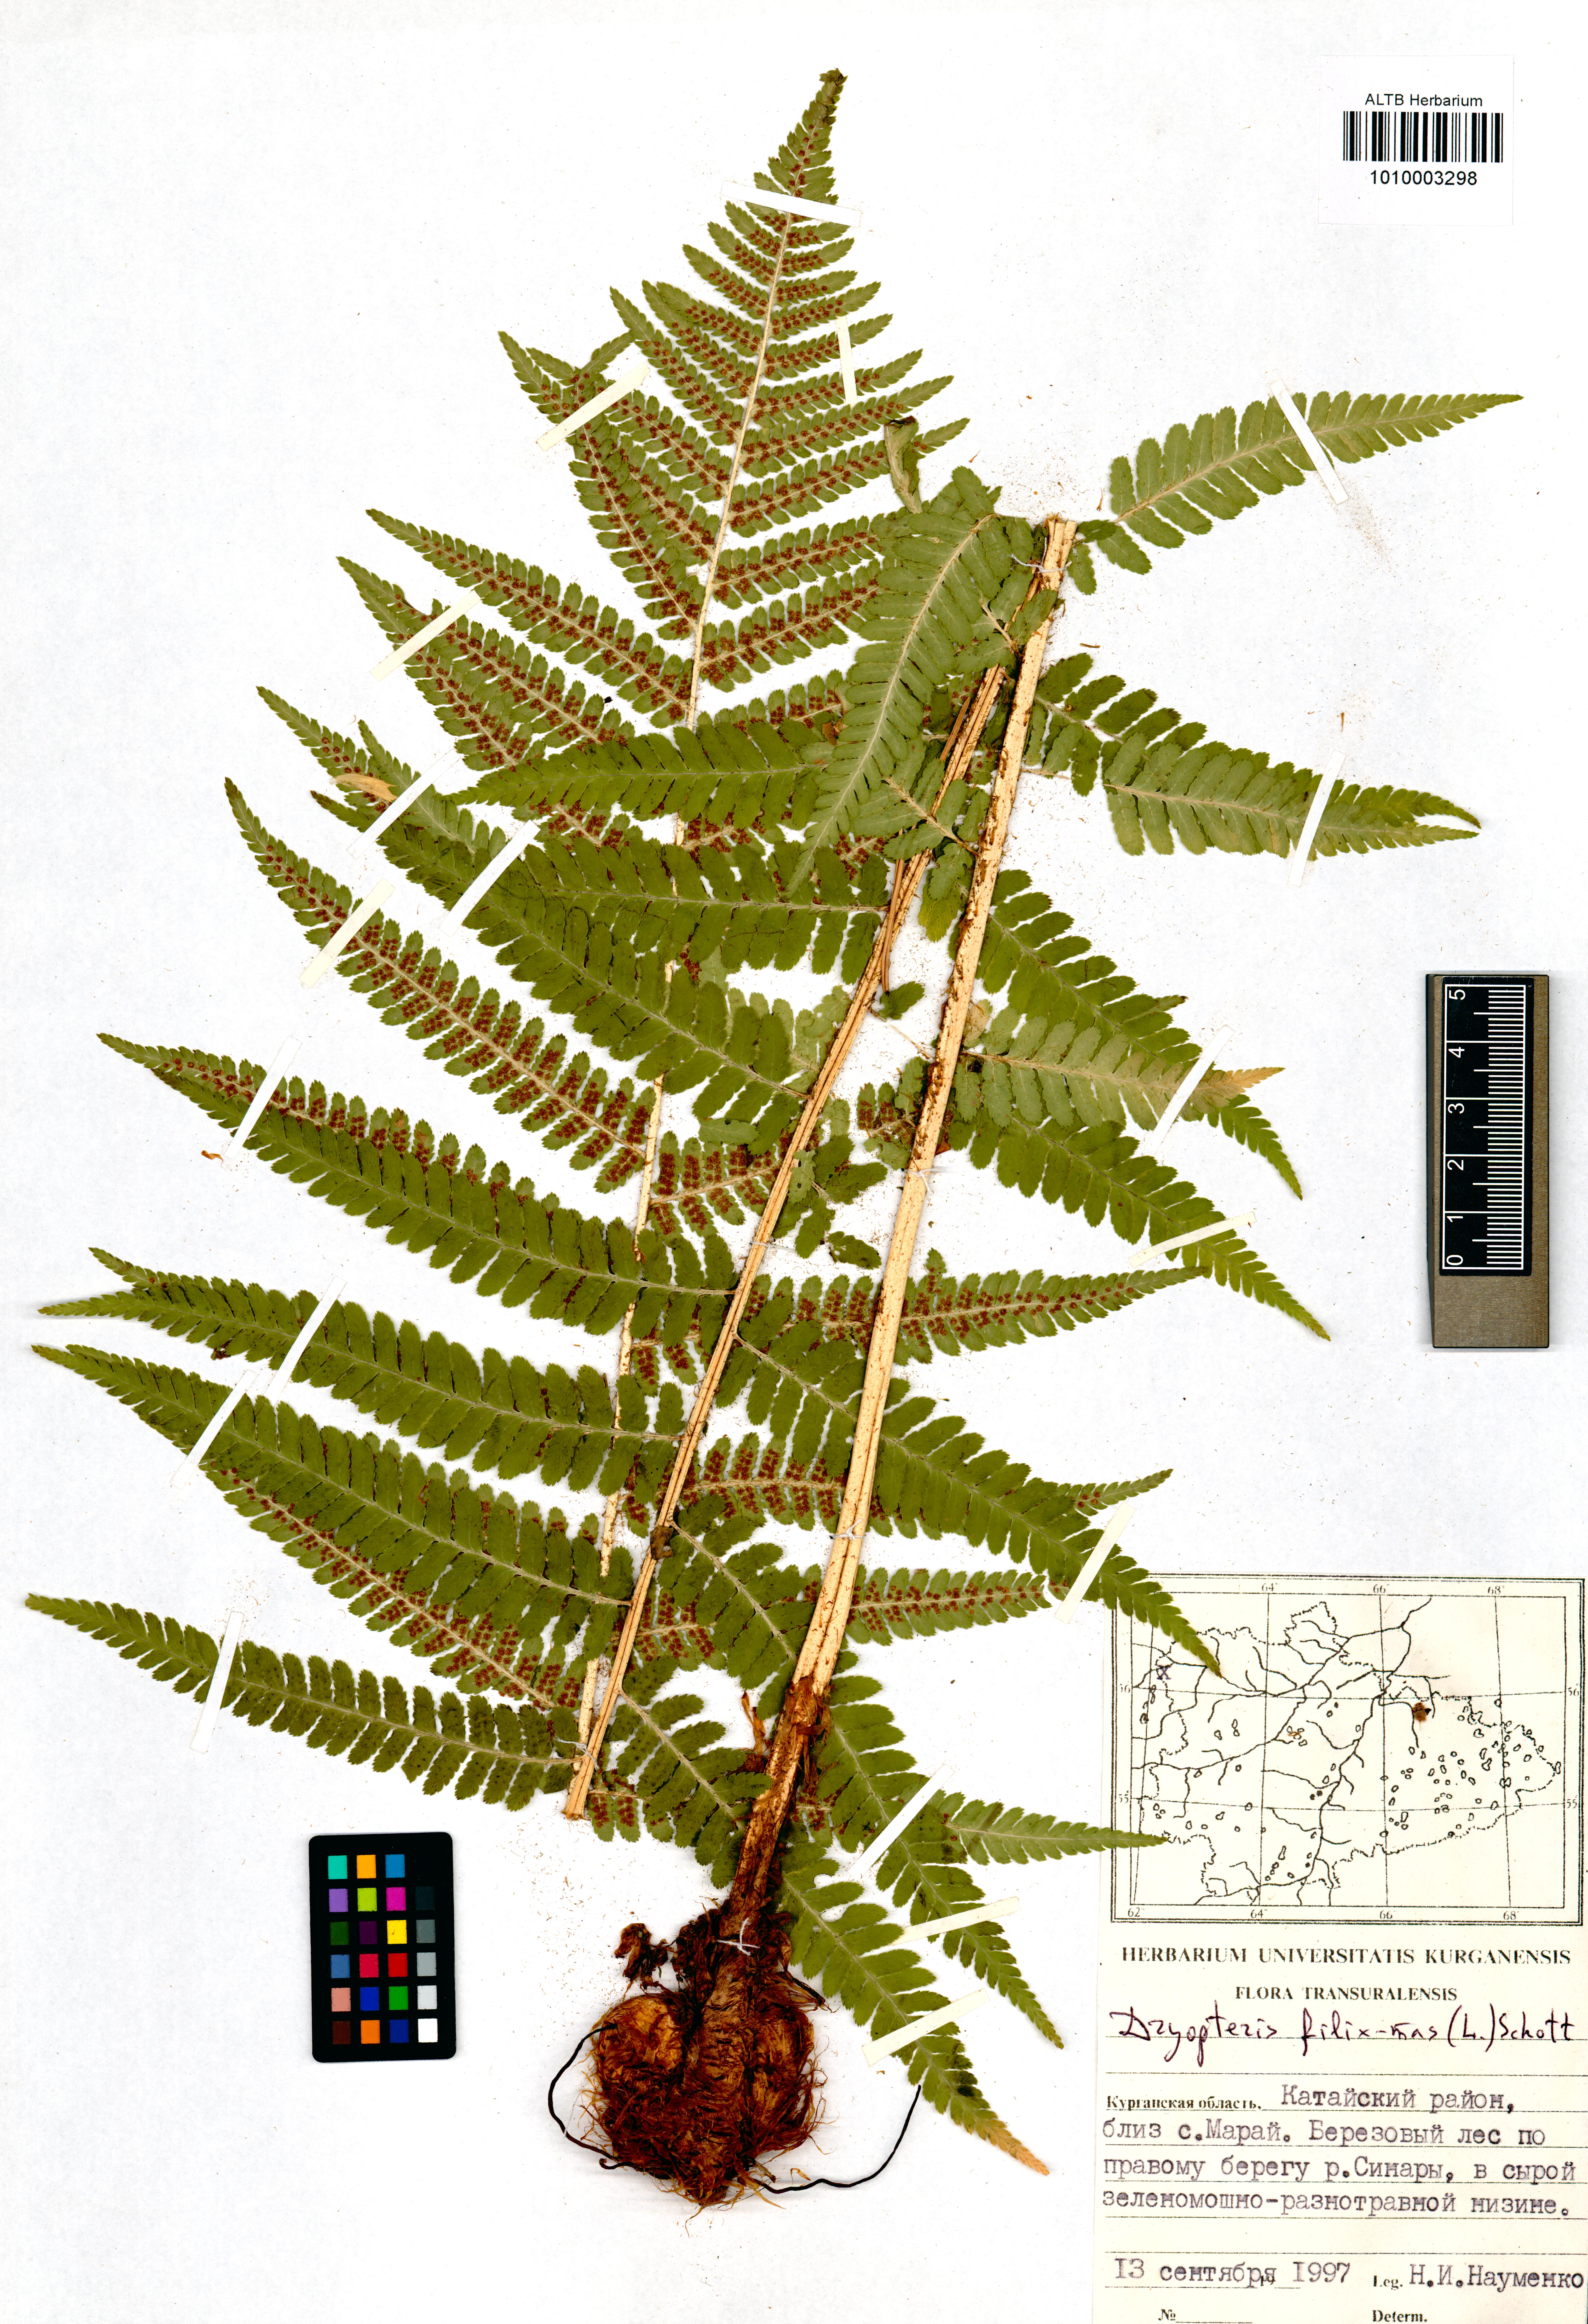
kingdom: Plantae
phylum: Tracheophyta
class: Polypodiopsida
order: Polypodiales
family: Dryopteridaceae
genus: Dryopteris
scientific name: Dryopteris filix-mas
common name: Male fern
